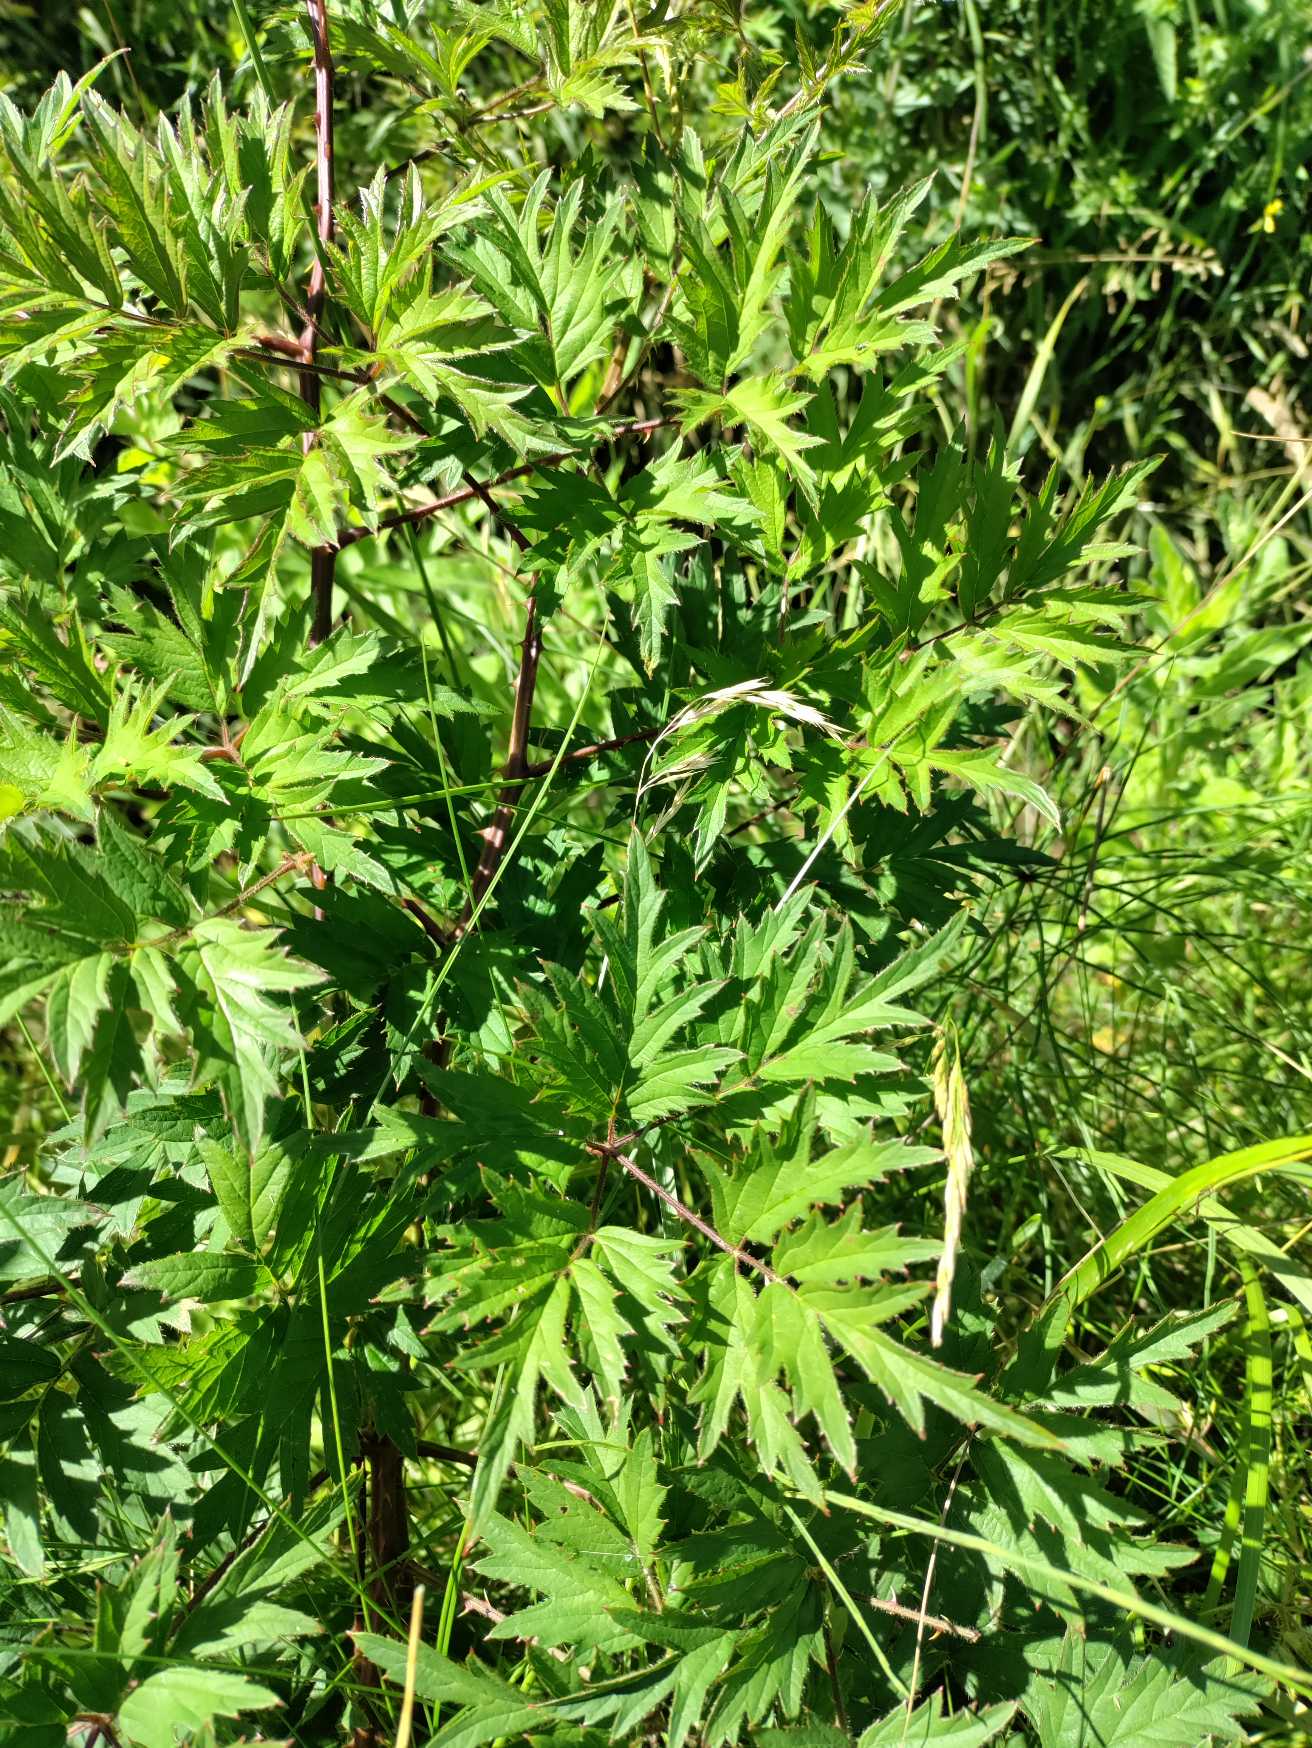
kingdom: Plantae
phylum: Tracheophyta
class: Magnoliopsida
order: Rosales
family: Rosaceae
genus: Rubus
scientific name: Rubus laciniatus
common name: Fliget brombær
